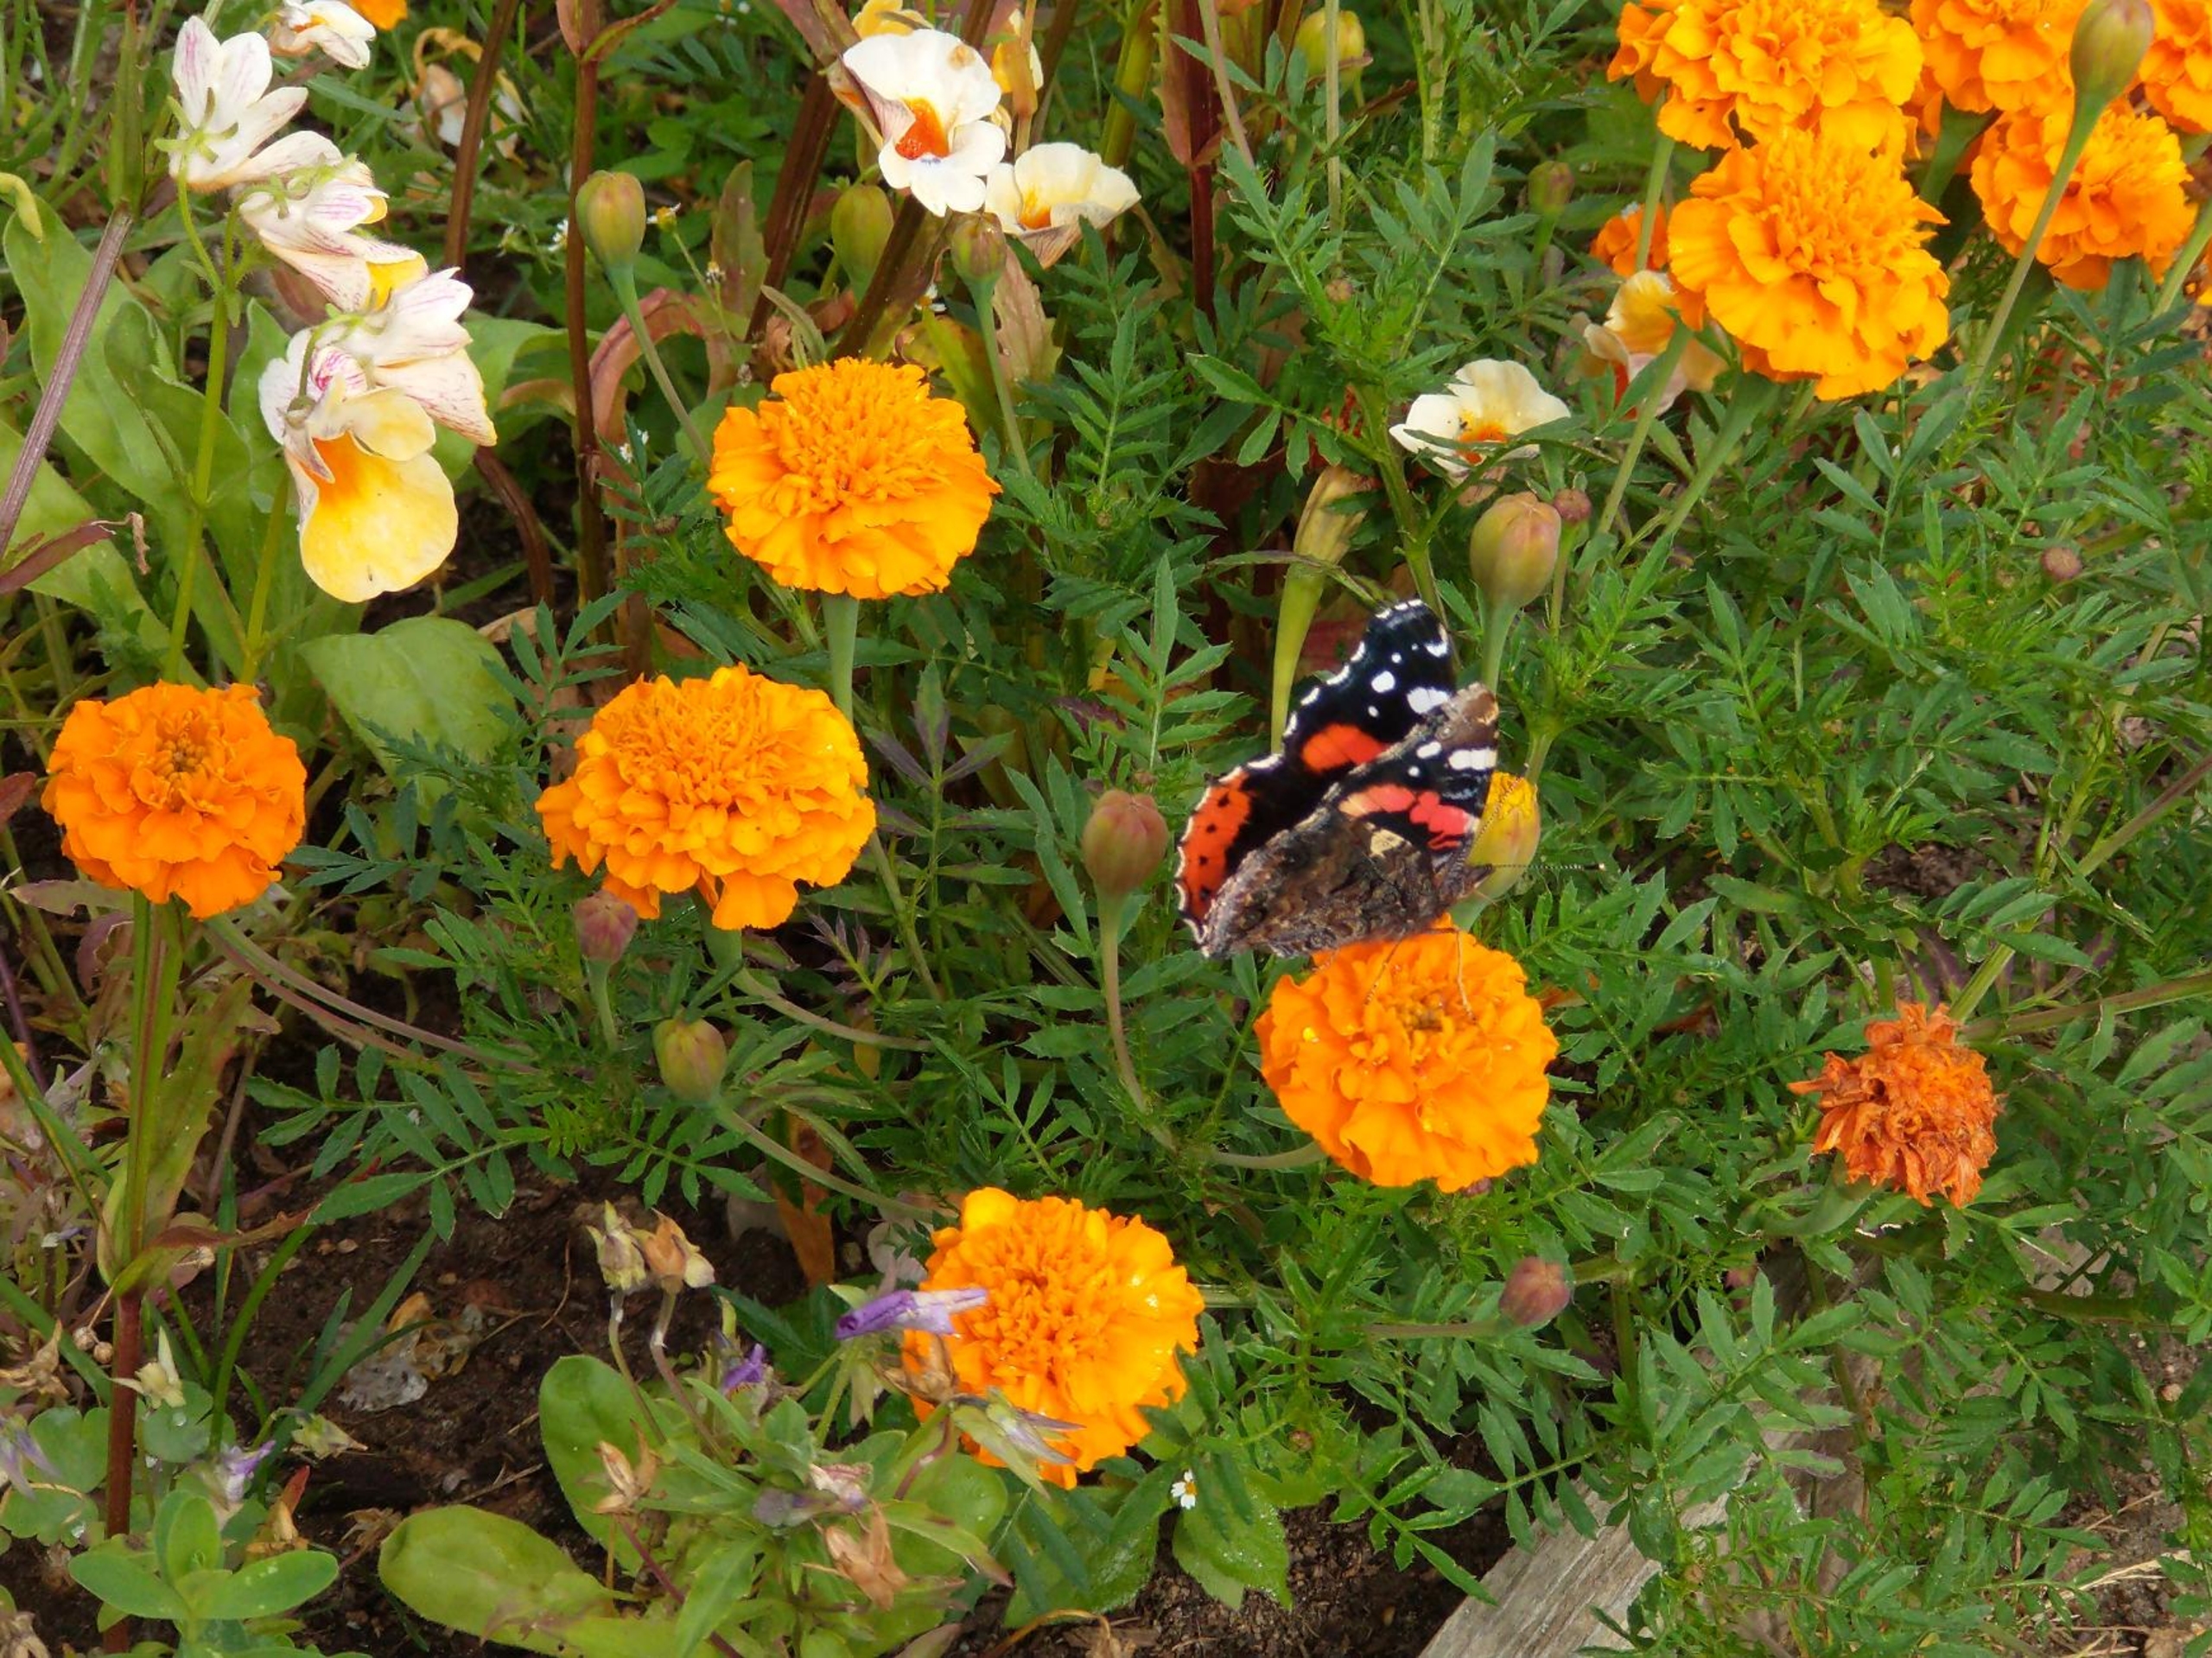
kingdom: Animalia
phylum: Arthropoda
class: Insecta
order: Lepidoptera
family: Nymphalidae
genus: Vanessa
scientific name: Vanessa atalanta
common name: Admiral
